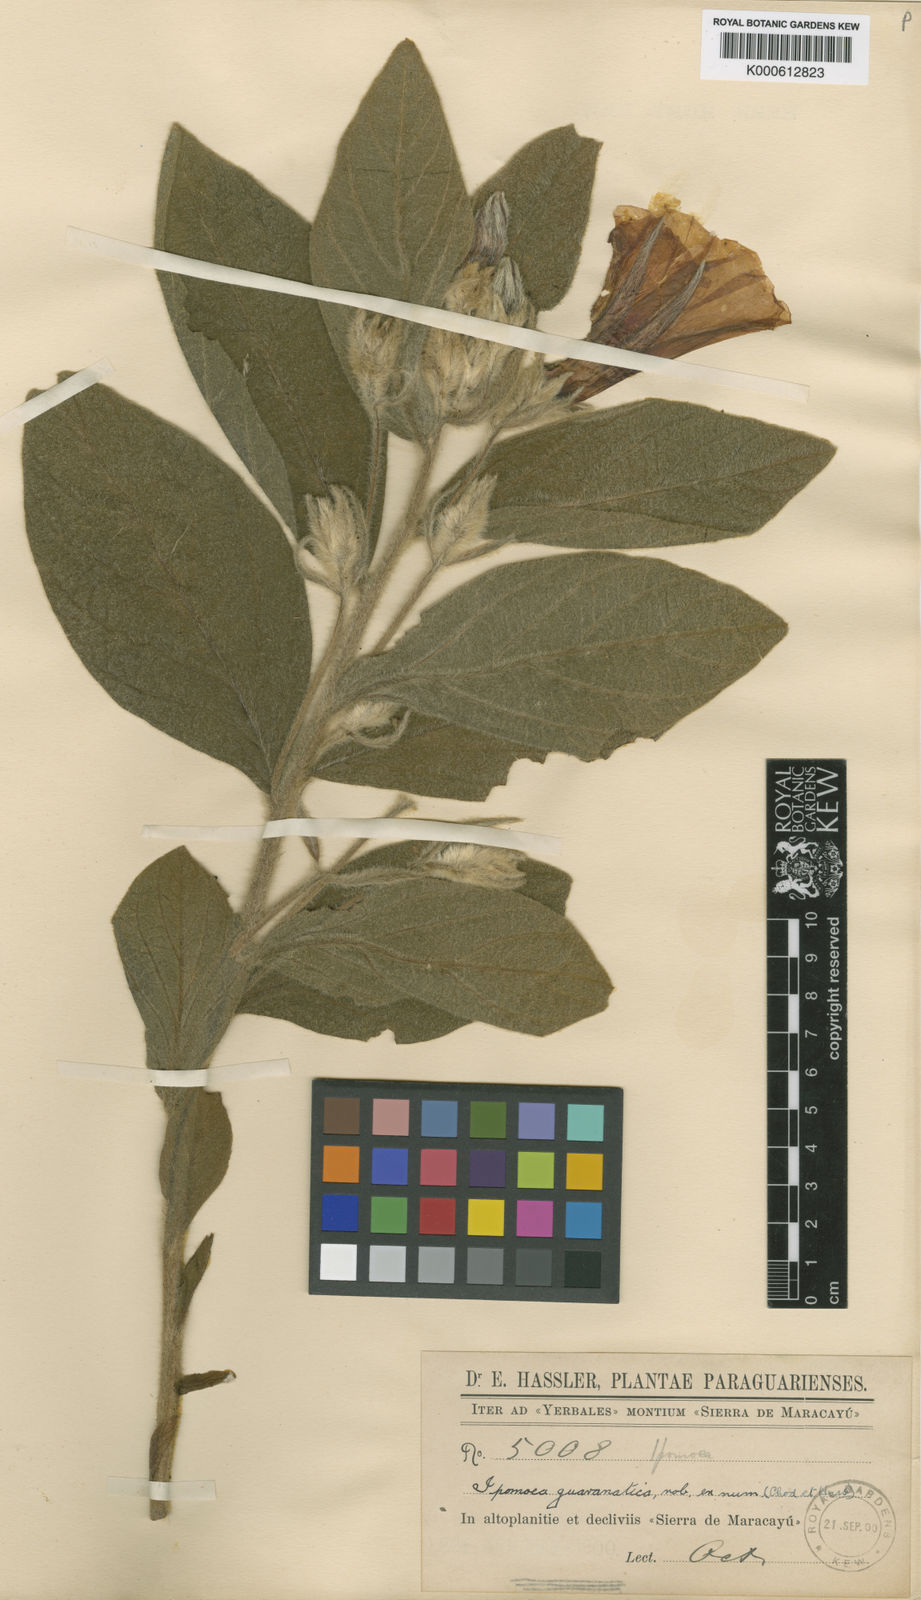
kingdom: Plantae
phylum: Tracheophyta
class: Magnoliopsida
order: Solanales
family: Convolvulaceae
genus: Ipomoea
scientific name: Ipomoea guaranitica
